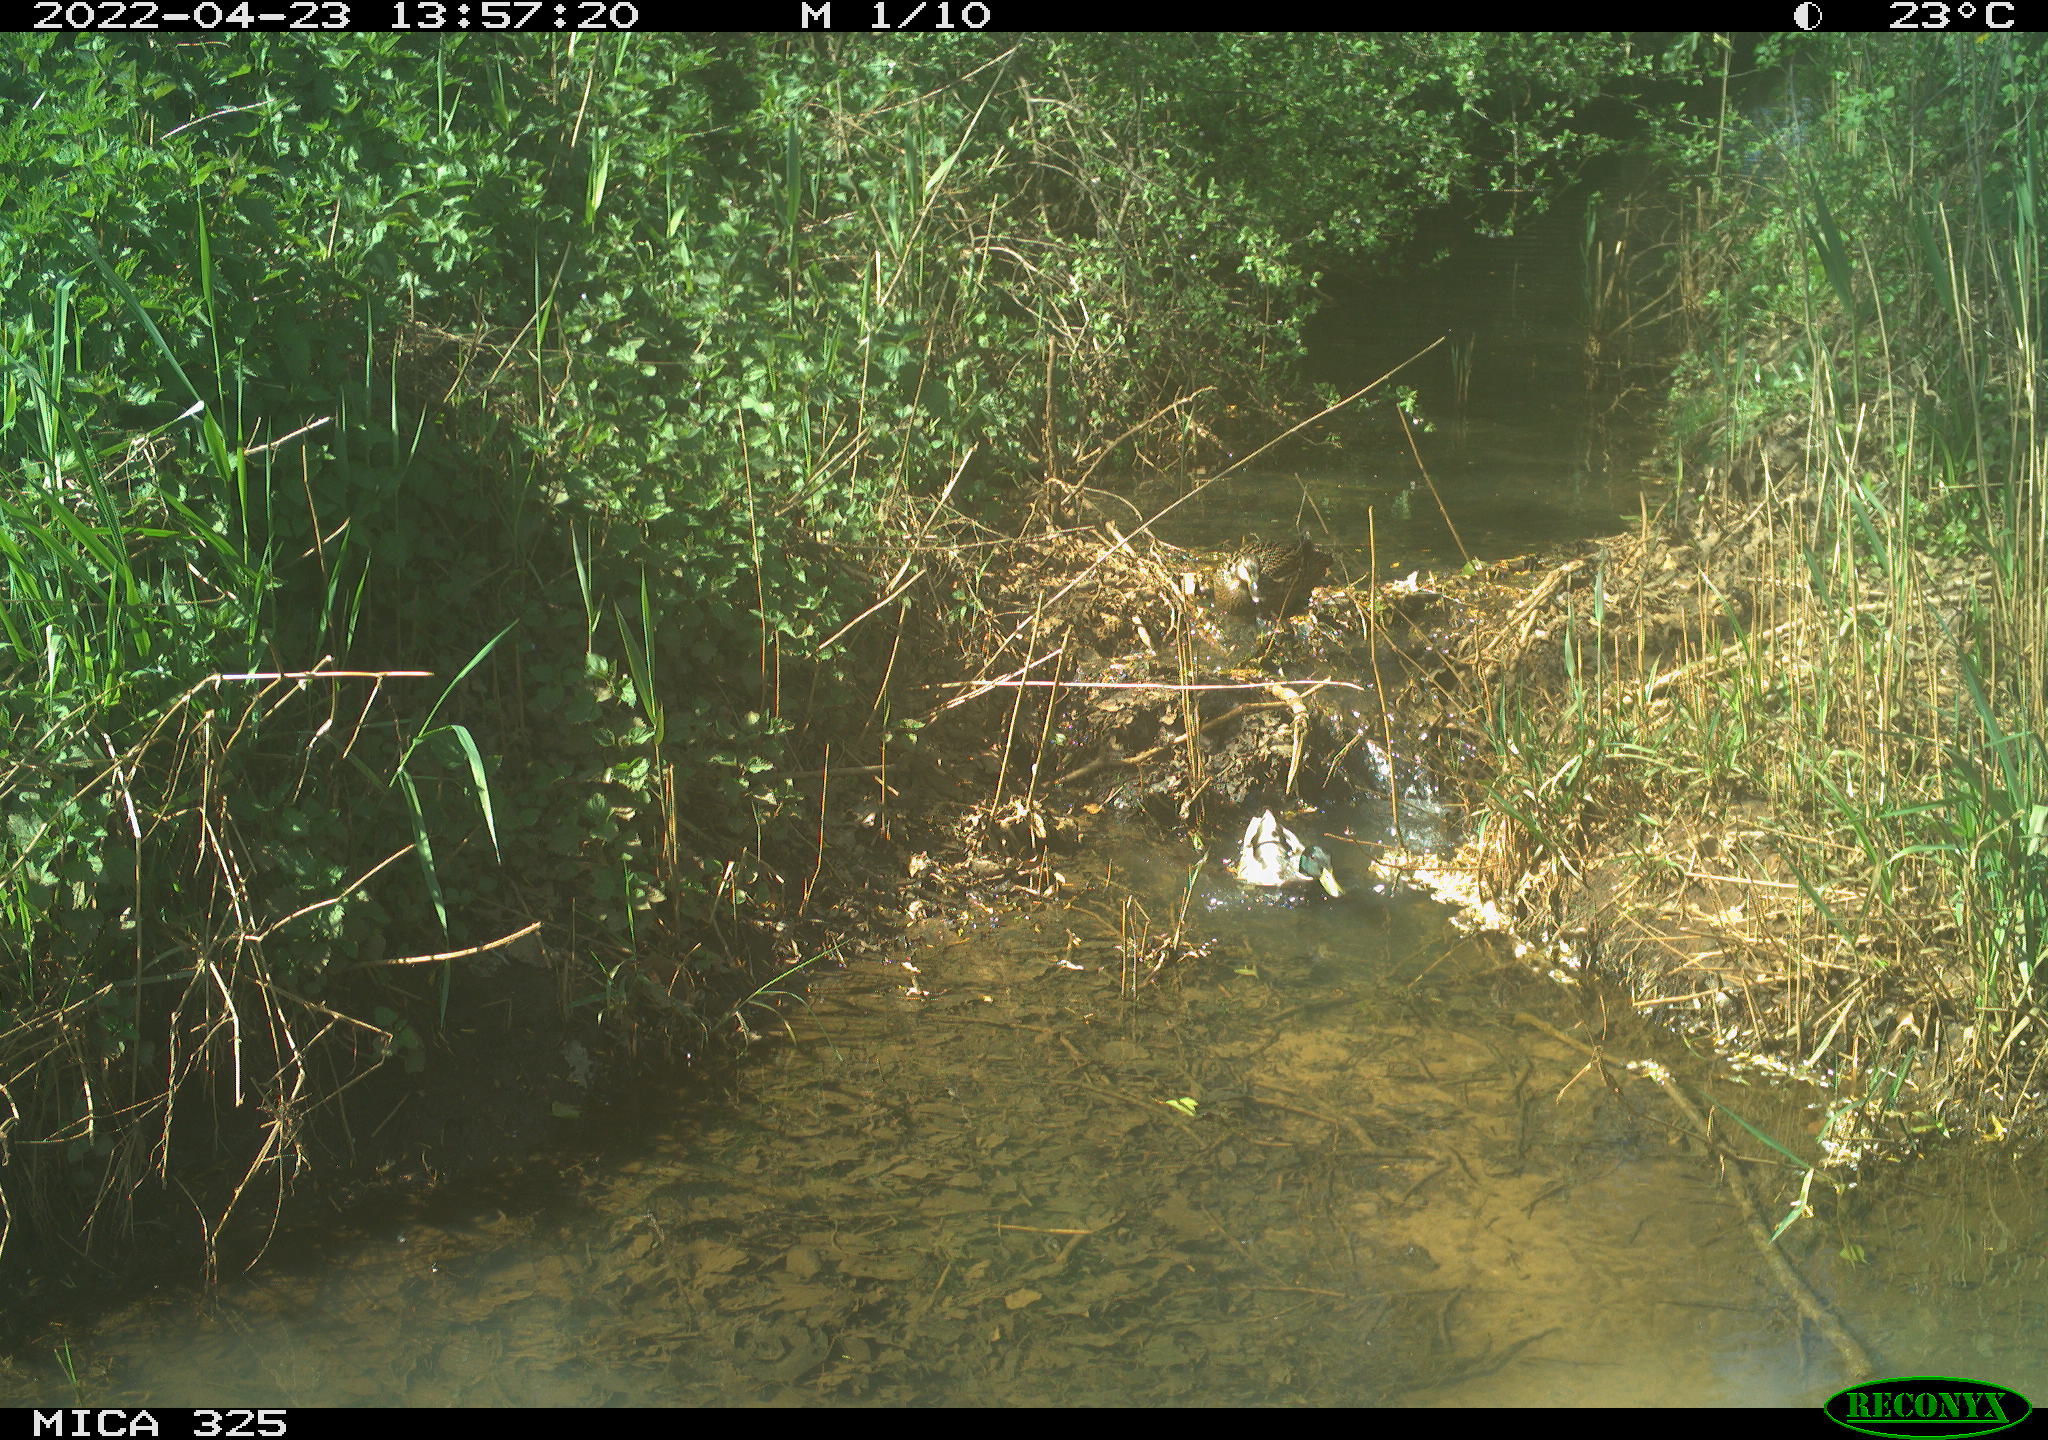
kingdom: Animalia
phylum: Chordata
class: Aves
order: Anseriformes
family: Anatidae
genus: Anas
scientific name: Anas platyrhynchos
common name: Mallard
